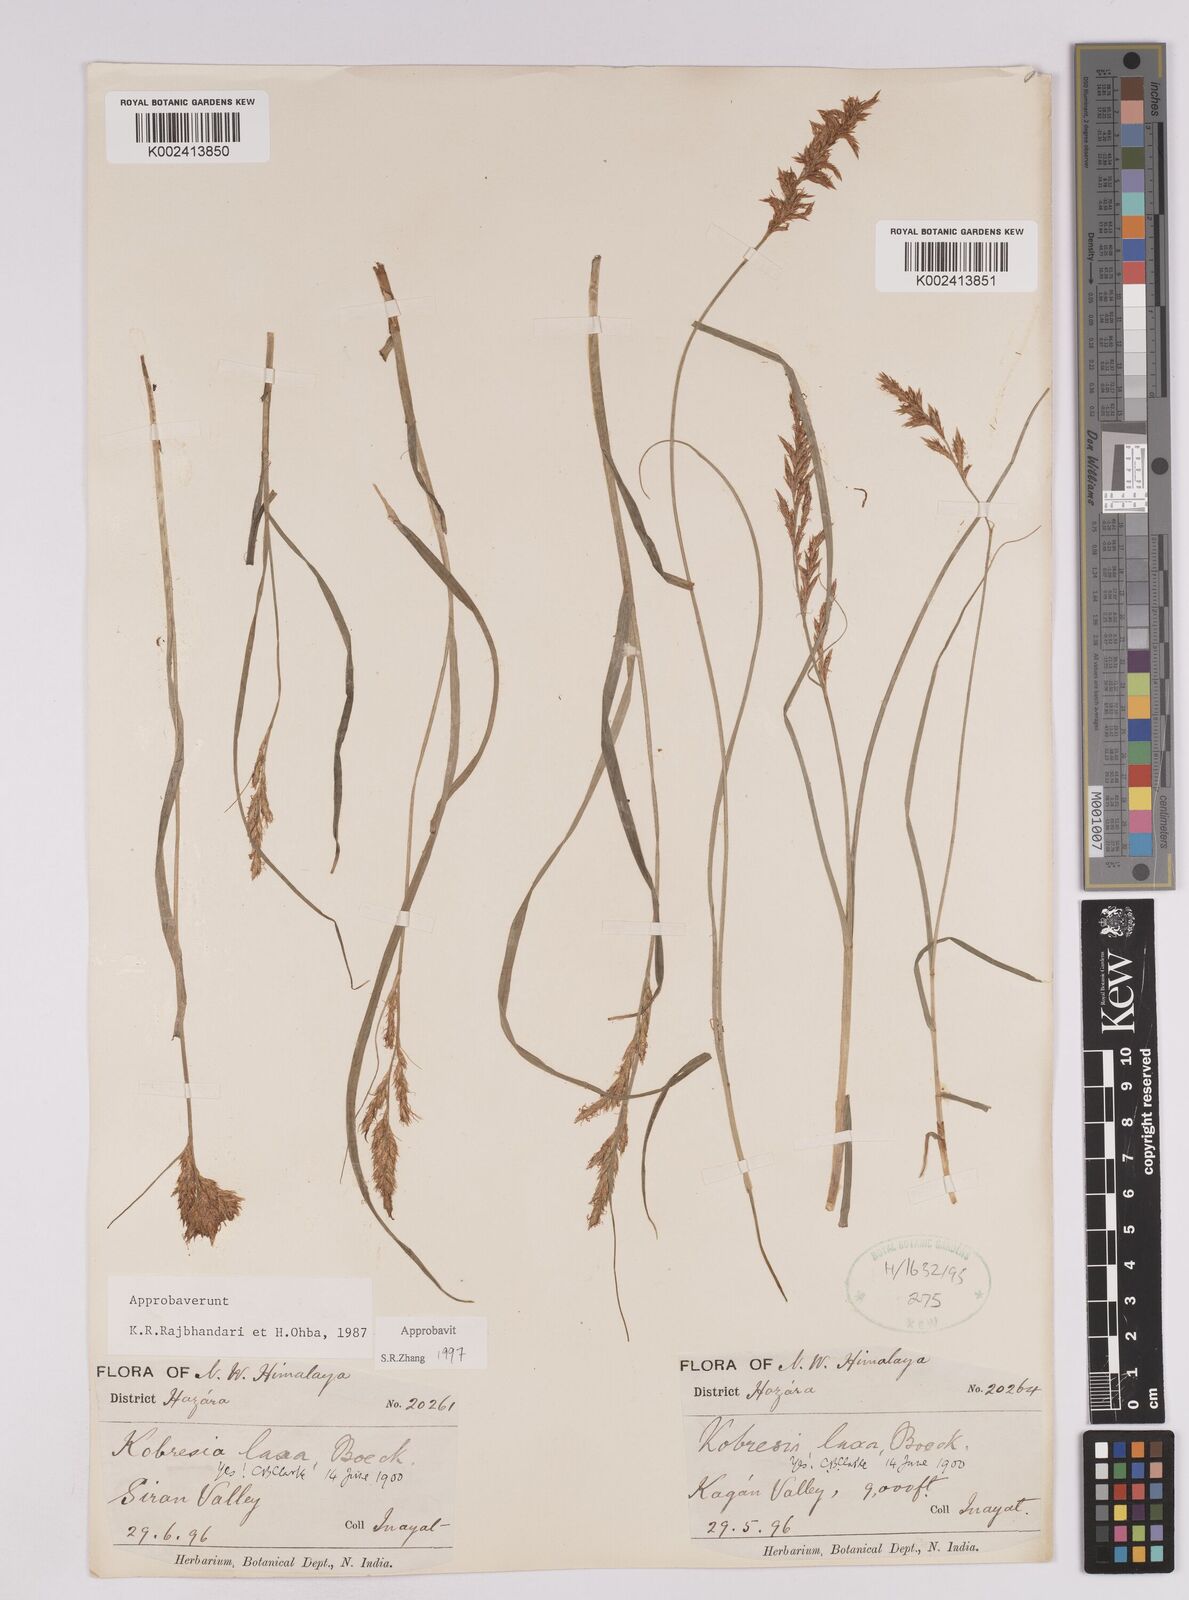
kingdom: Plantae
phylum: Tracheophyta
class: Liliopsida
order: Poales
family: Cyperaceae
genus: Carex
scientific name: Carex pseudolaxa
